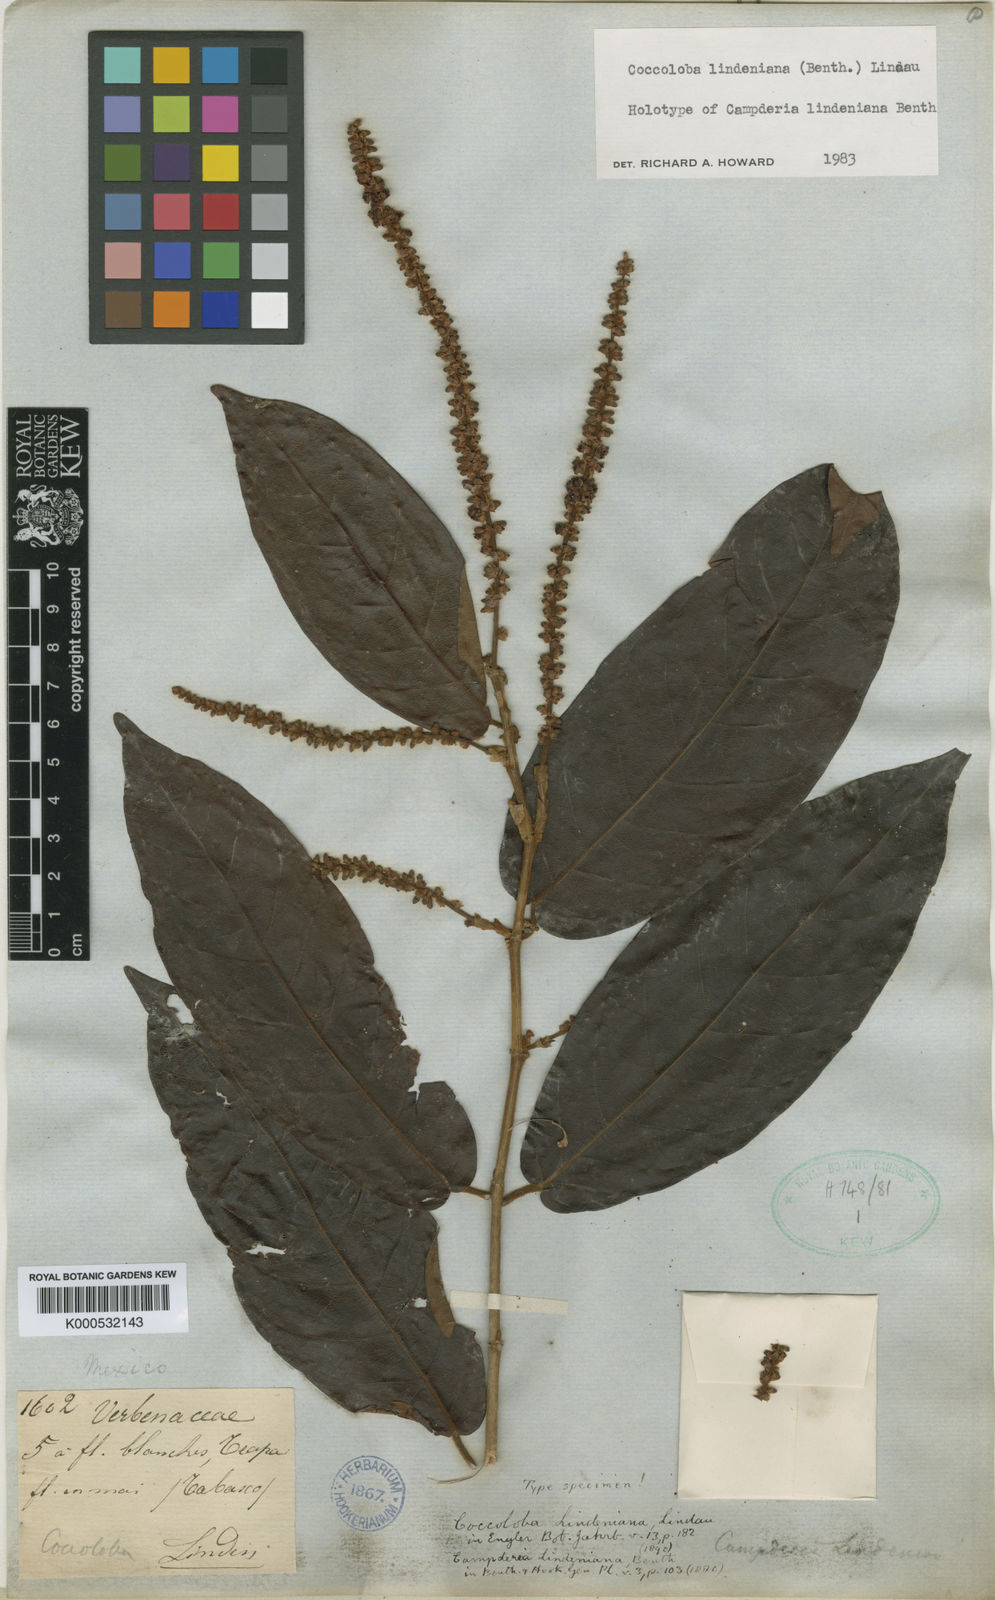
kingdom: Plantae
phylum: Tracheophyta
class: Magnoliopsida
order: Caryophyllales
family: Polygonaceae
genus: Coccoloba
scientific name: Coccoloba lindeniana
